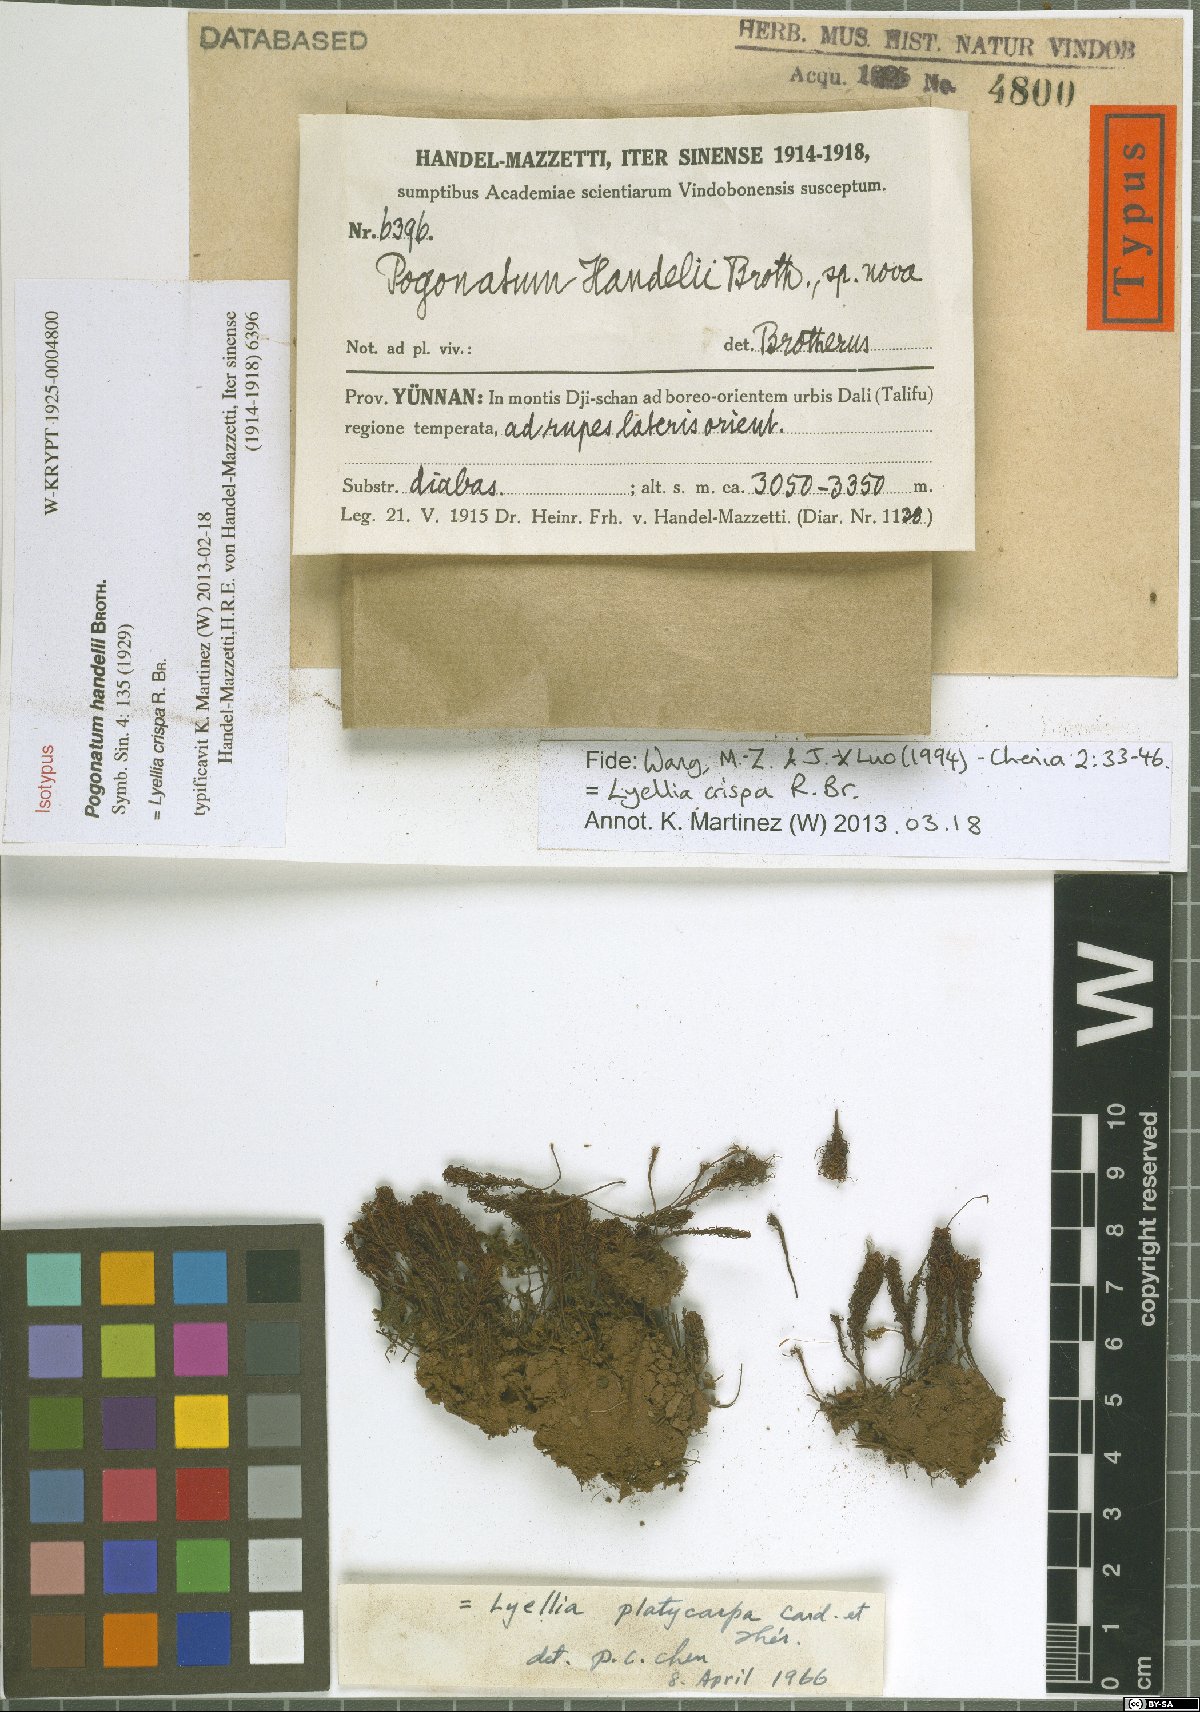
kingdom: Plantae
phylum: Bryophyta
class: Polytrichopsida
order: Polytrichales
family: Polytrichaceae
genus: Pogonatum
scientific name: Pogonatum nudiusculum
